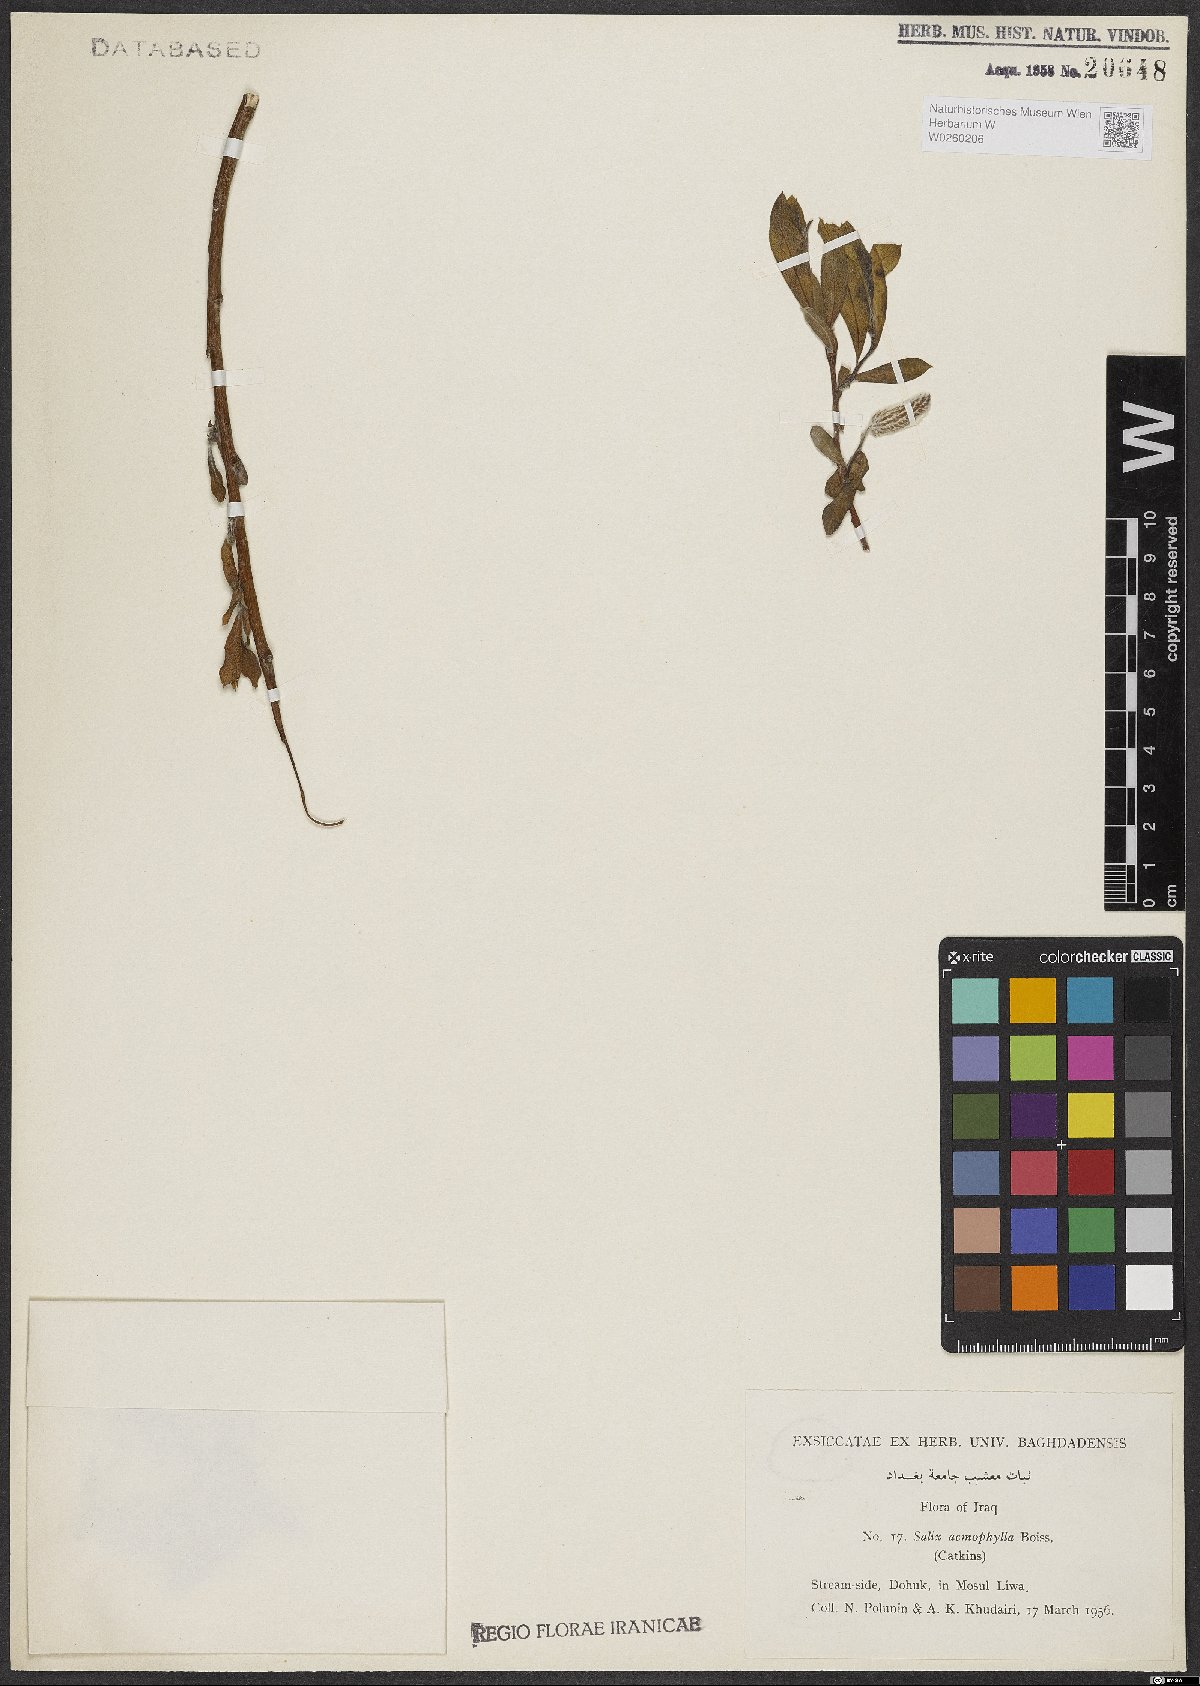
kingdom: Plantae
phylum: Tracheophyta
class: Magnoliopsida
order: Malpighiales
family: Salicaceae
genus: Salix
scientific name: Salix acmophylla
